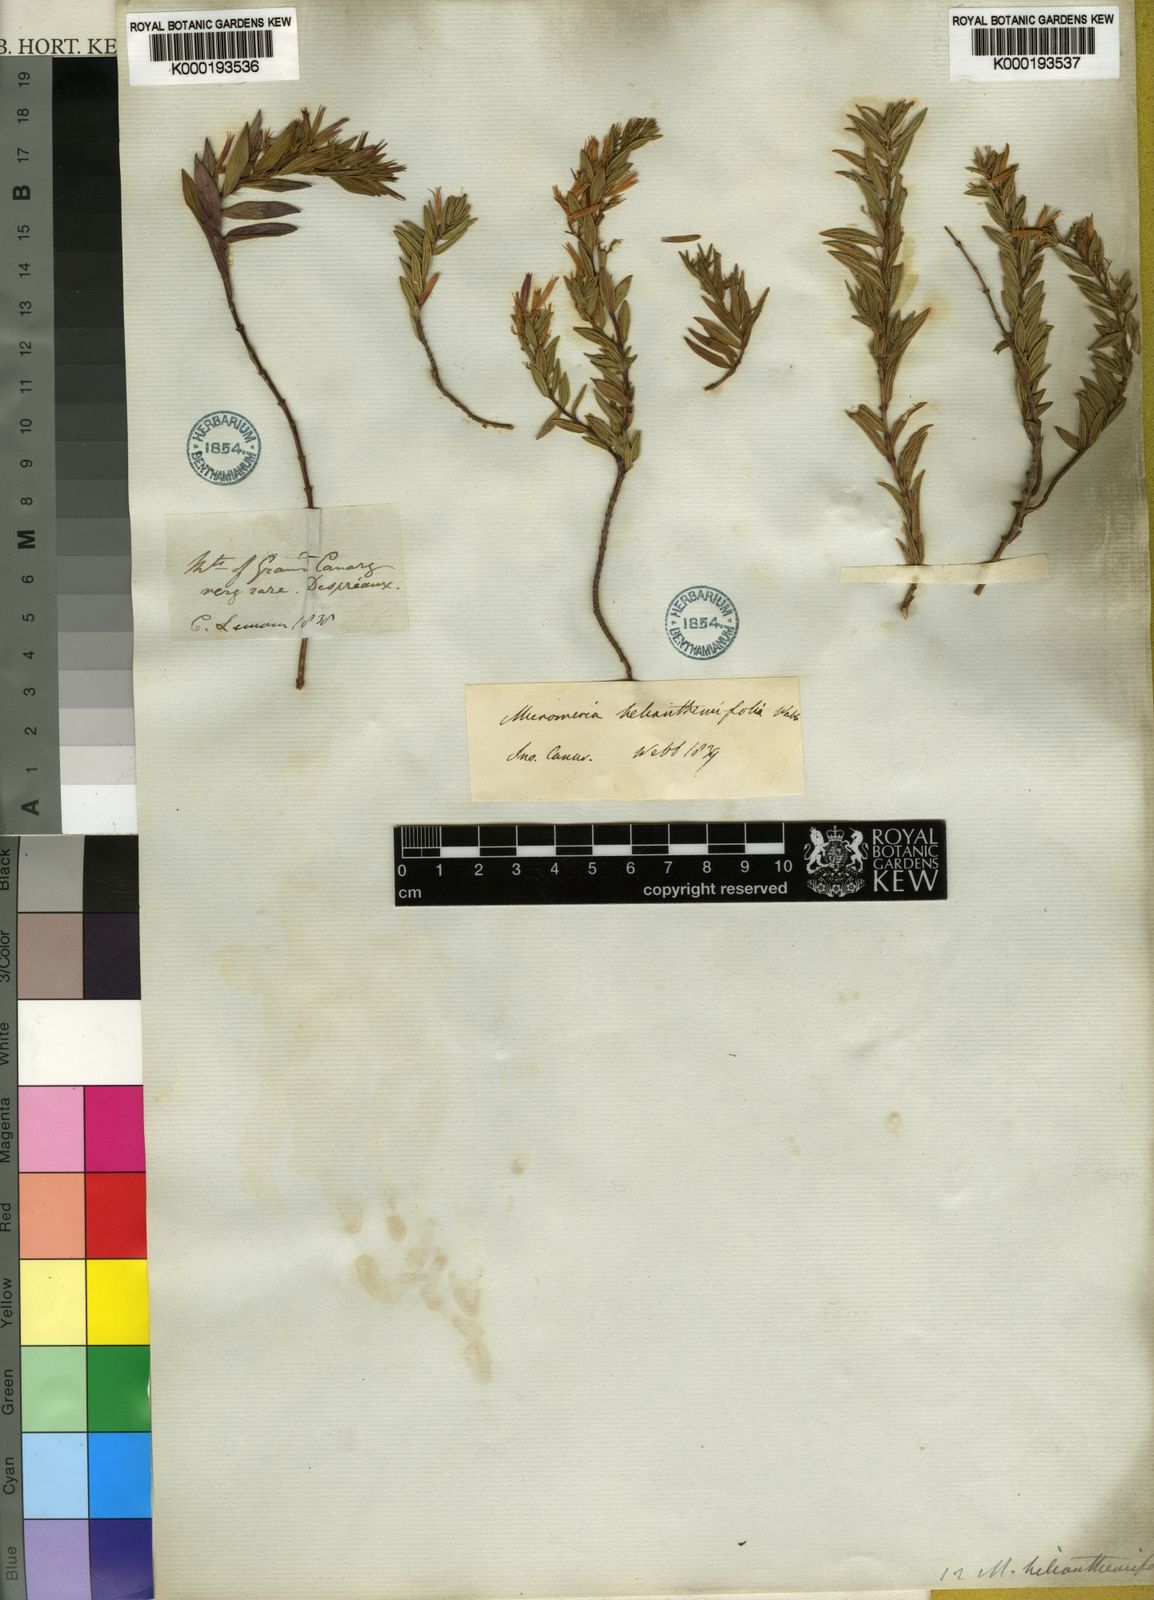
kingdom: Plantae
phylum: Tracheophyta
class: Magnoliopsida
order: Lamiales
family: Lamiaceae
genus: Micromeria
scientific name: Micromeria helianthemifolia
